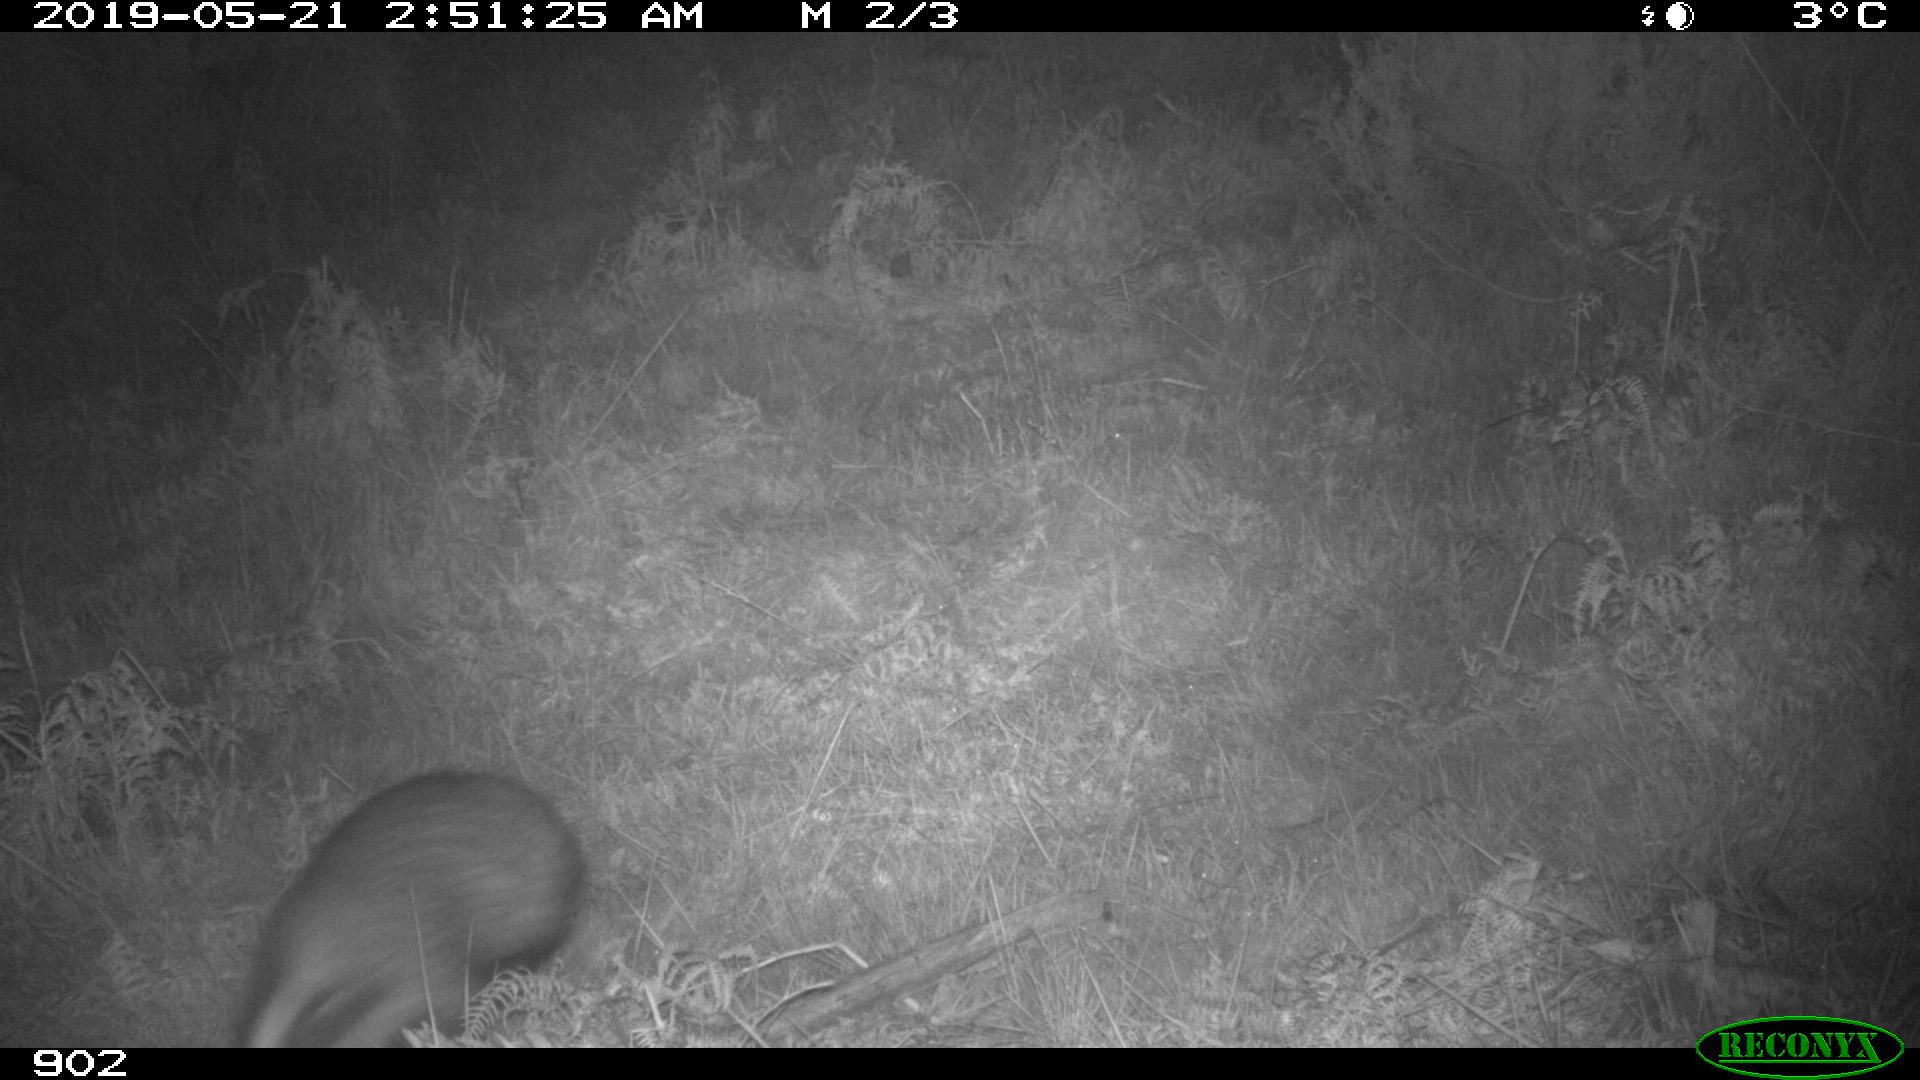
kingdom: Animalia
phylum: Chordata
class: Mammalia
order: Carnivora
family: Mustelidae
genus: Meles
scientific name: Meles meles
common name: Eurasian badger
